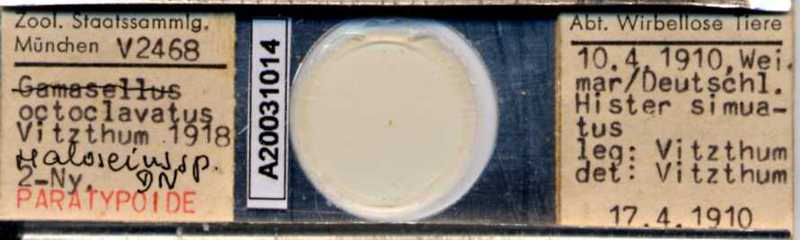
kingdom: Animalia
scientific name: Animalia
